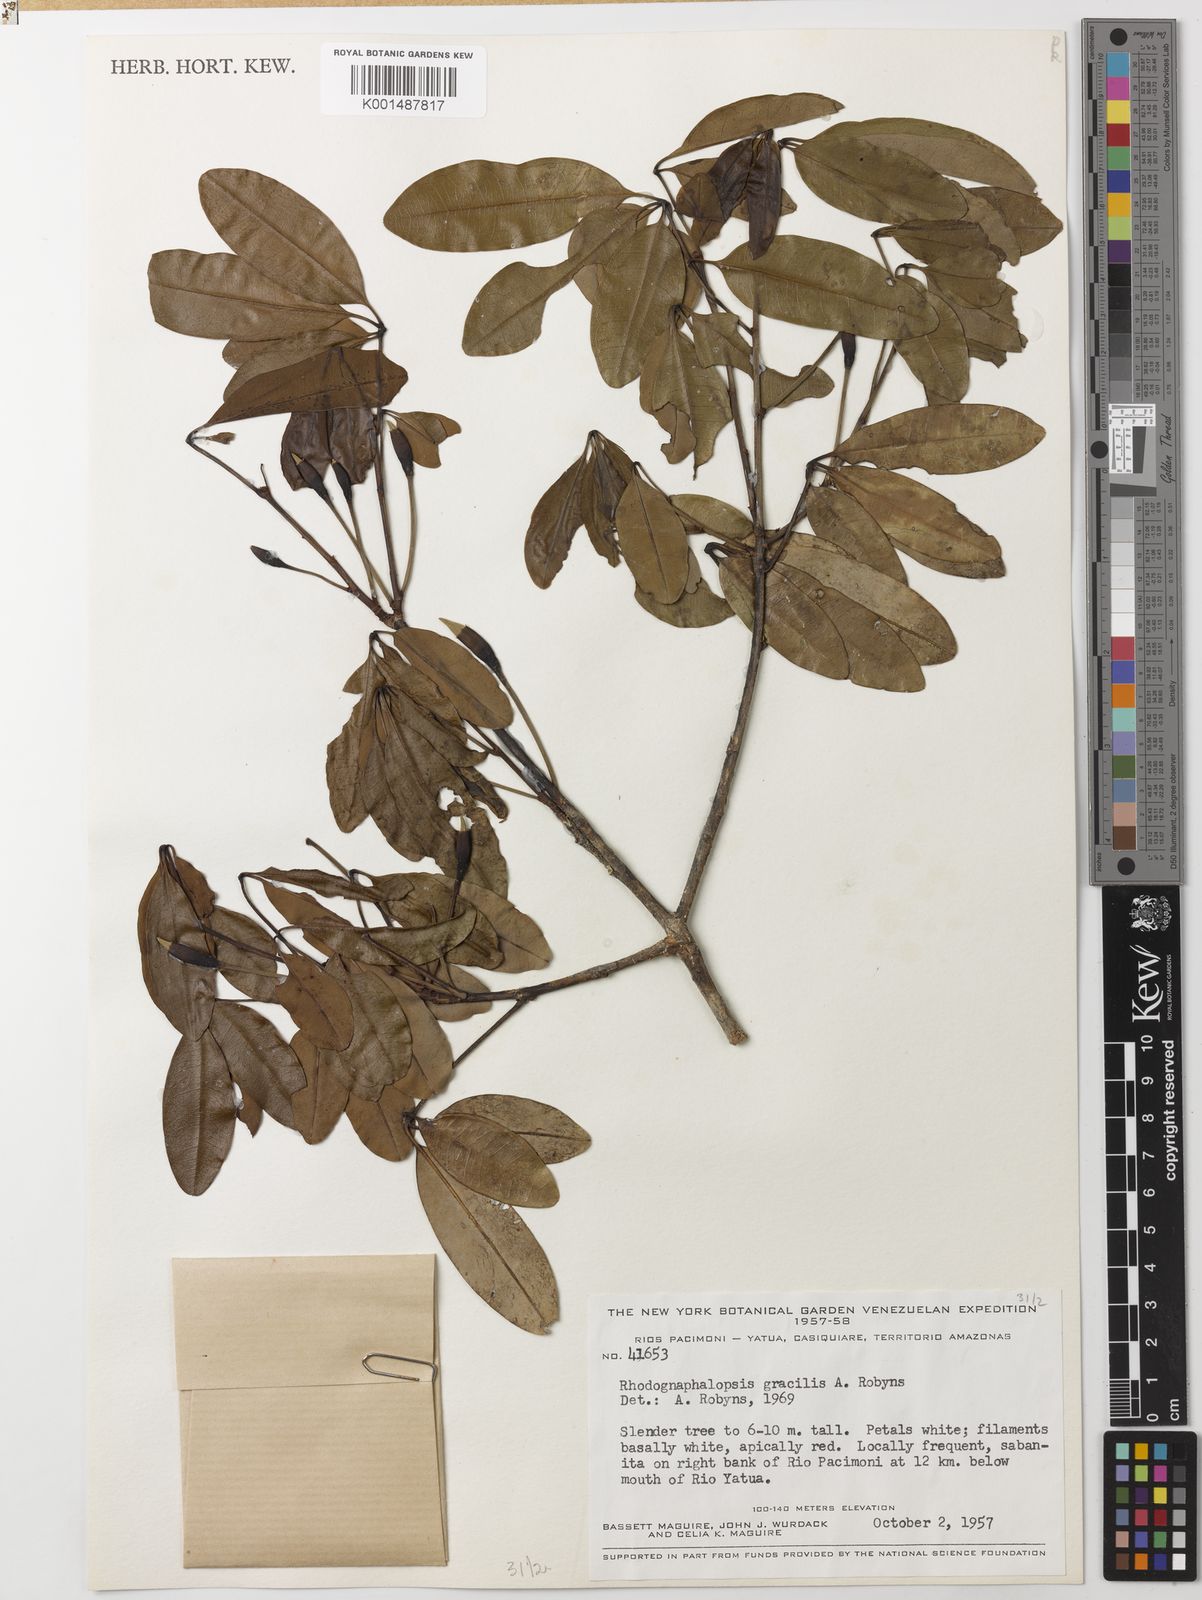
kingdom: Plantae
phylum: Tracheophyta
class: Magnoliopsida
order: Malvales
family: Malvaceae
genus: Pachira
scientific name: Pachira gracilis
